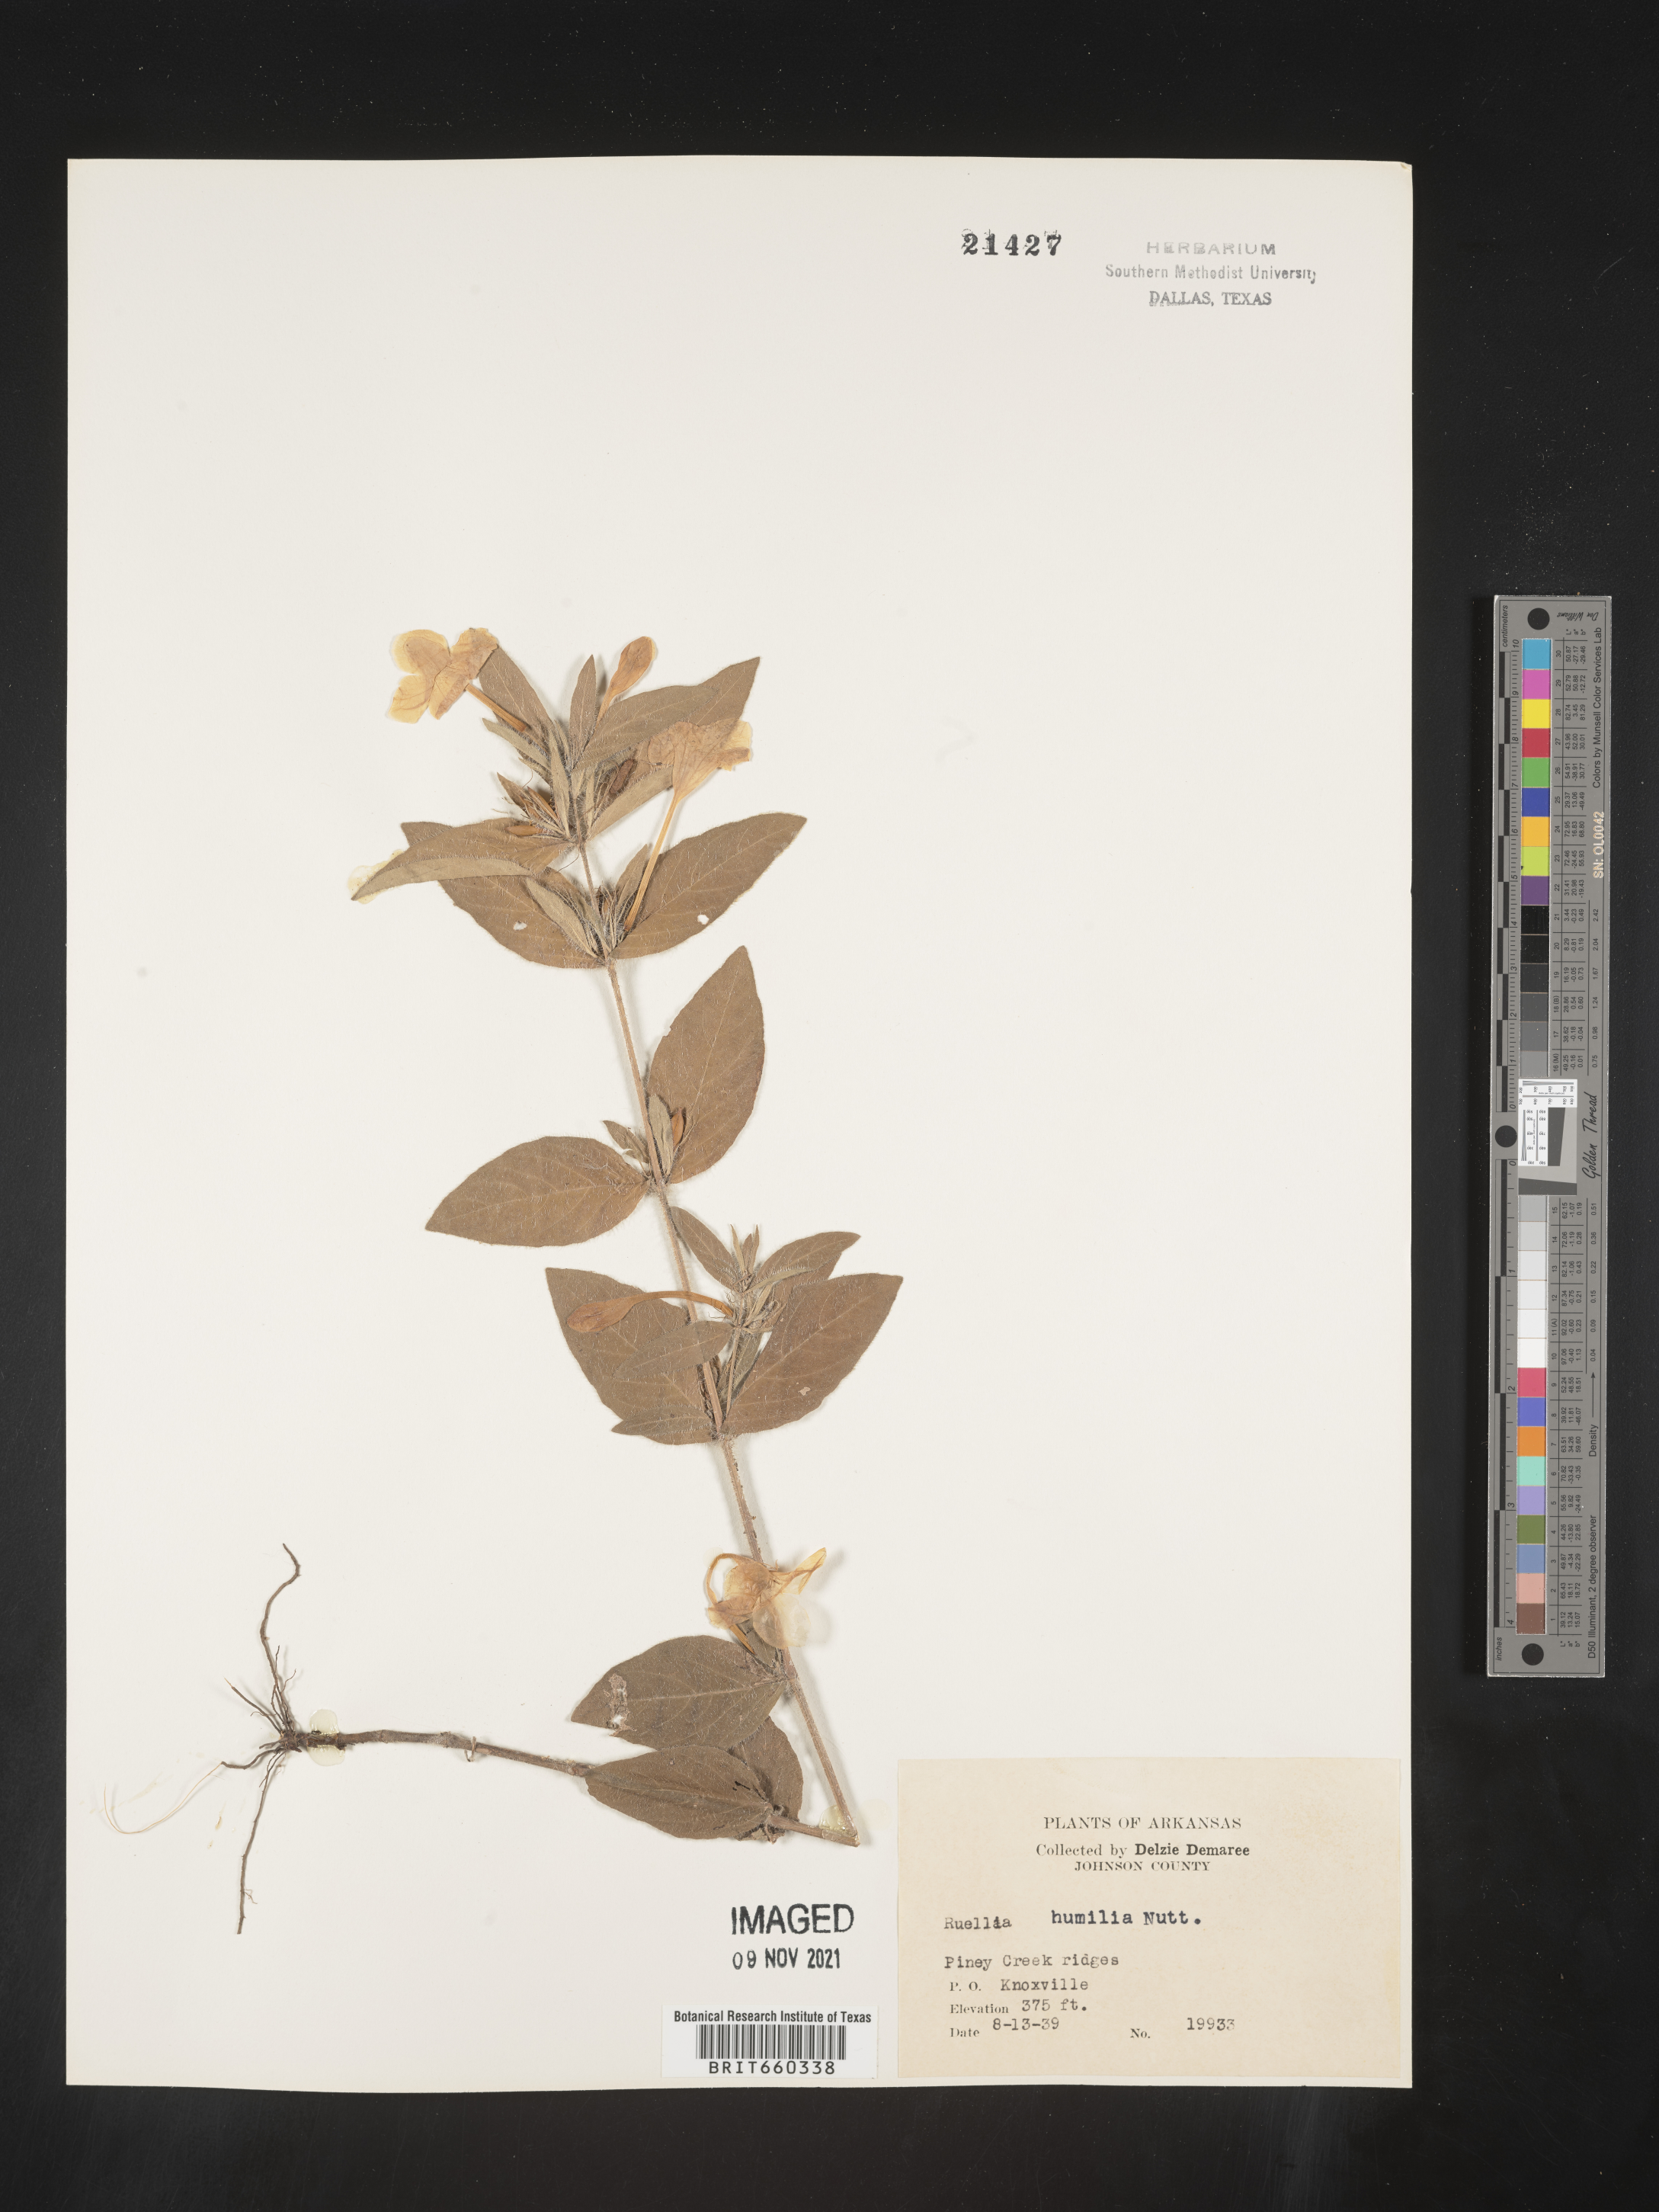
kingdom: Plantae
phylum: Tracheophyta
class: Magnoliopsida
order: Lamiales
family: Acanthaceae
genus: Ruellia
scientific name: Ruellia humilis
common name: Fringe-leaf ruellia
